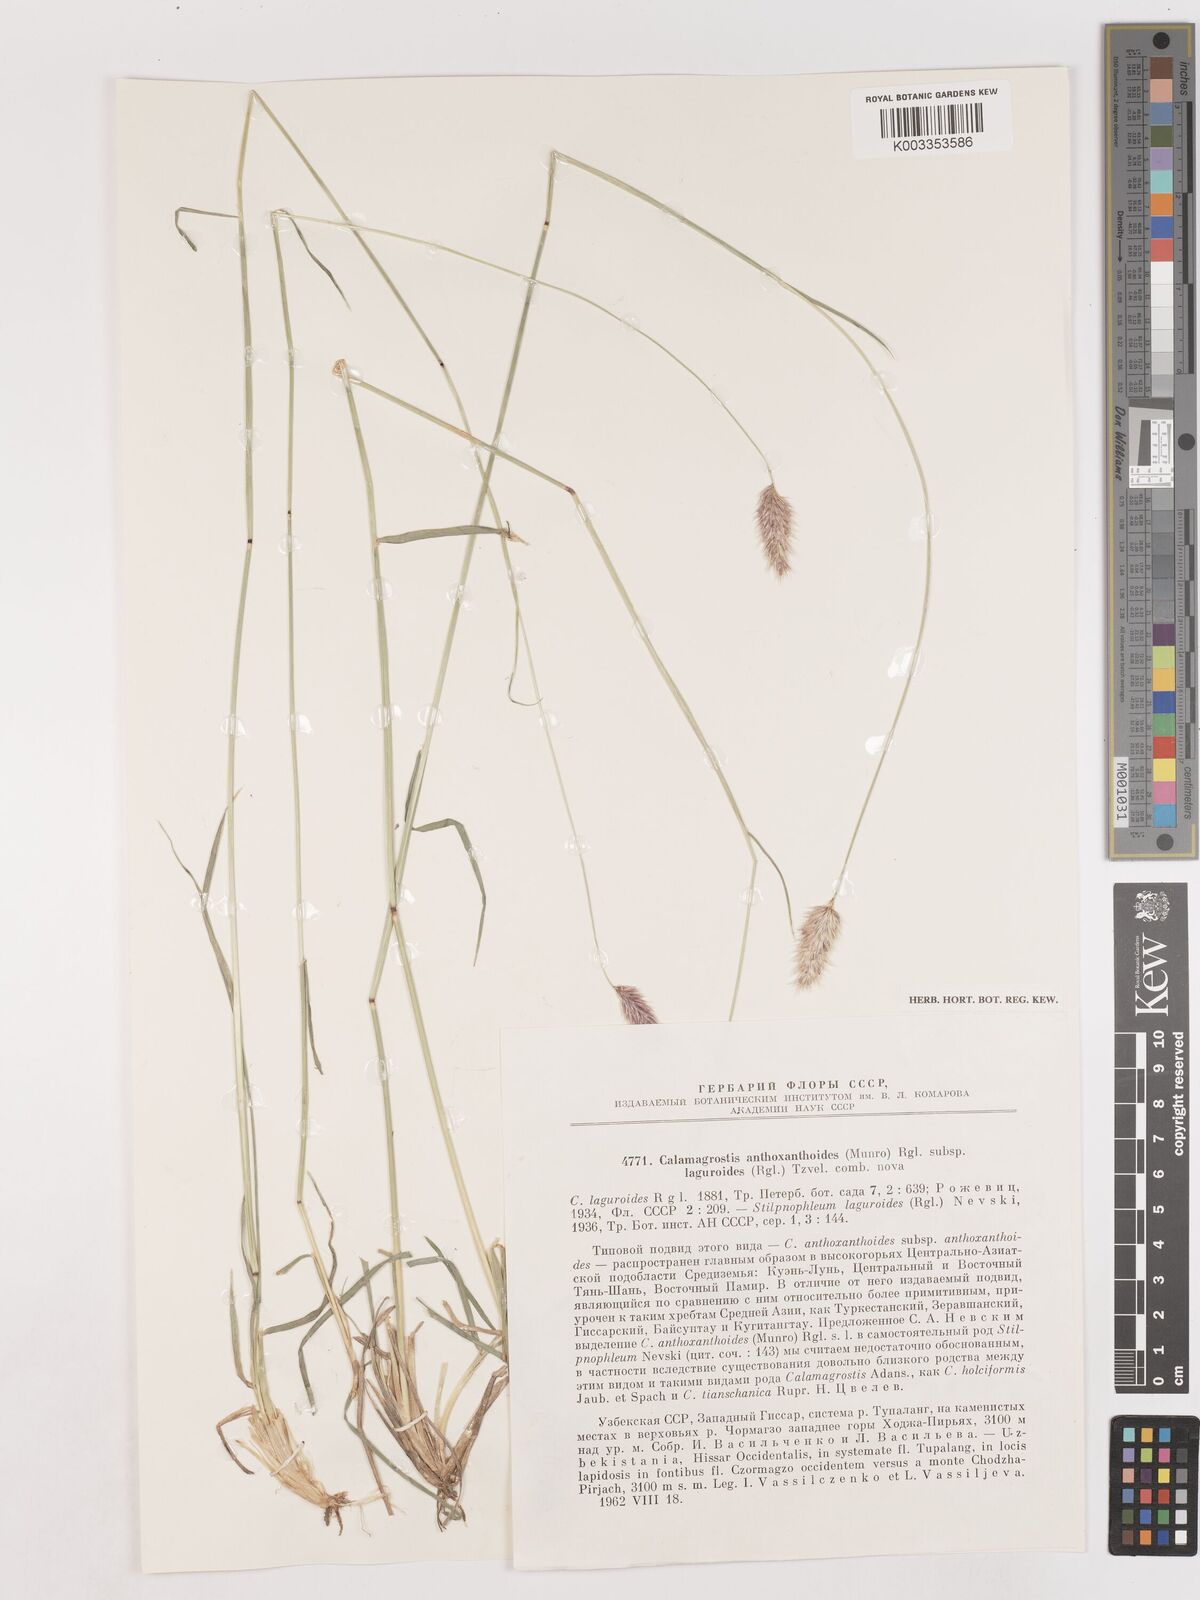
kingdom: Plantae
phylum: Tracheophyta
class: Liliopsida
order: Poales
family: Poaceae
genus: Calamagrostis
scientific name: Calamagrostis anthoxanthoides
